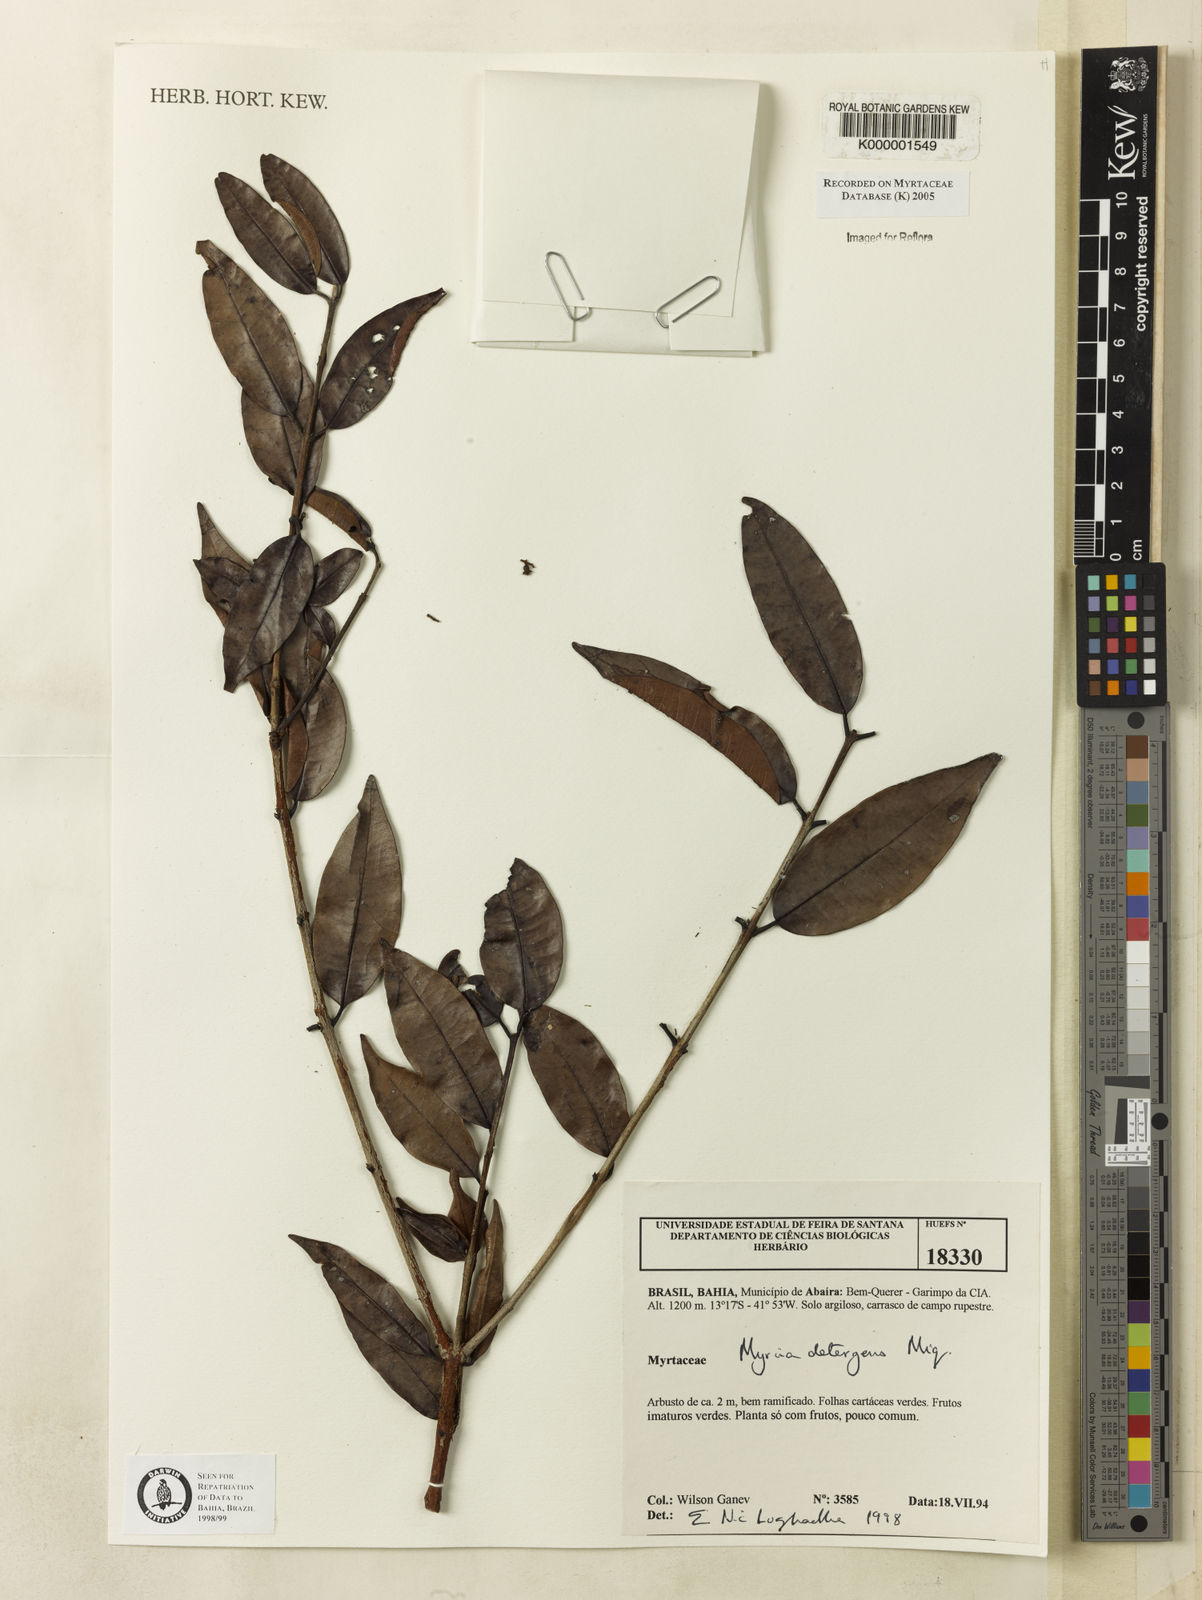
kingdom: Plantae
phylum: Tracheophyta
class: Magnoliopsida
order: Myrtales
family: Myrtaceae
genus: Myrcia
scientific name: Myrcia amazonica
